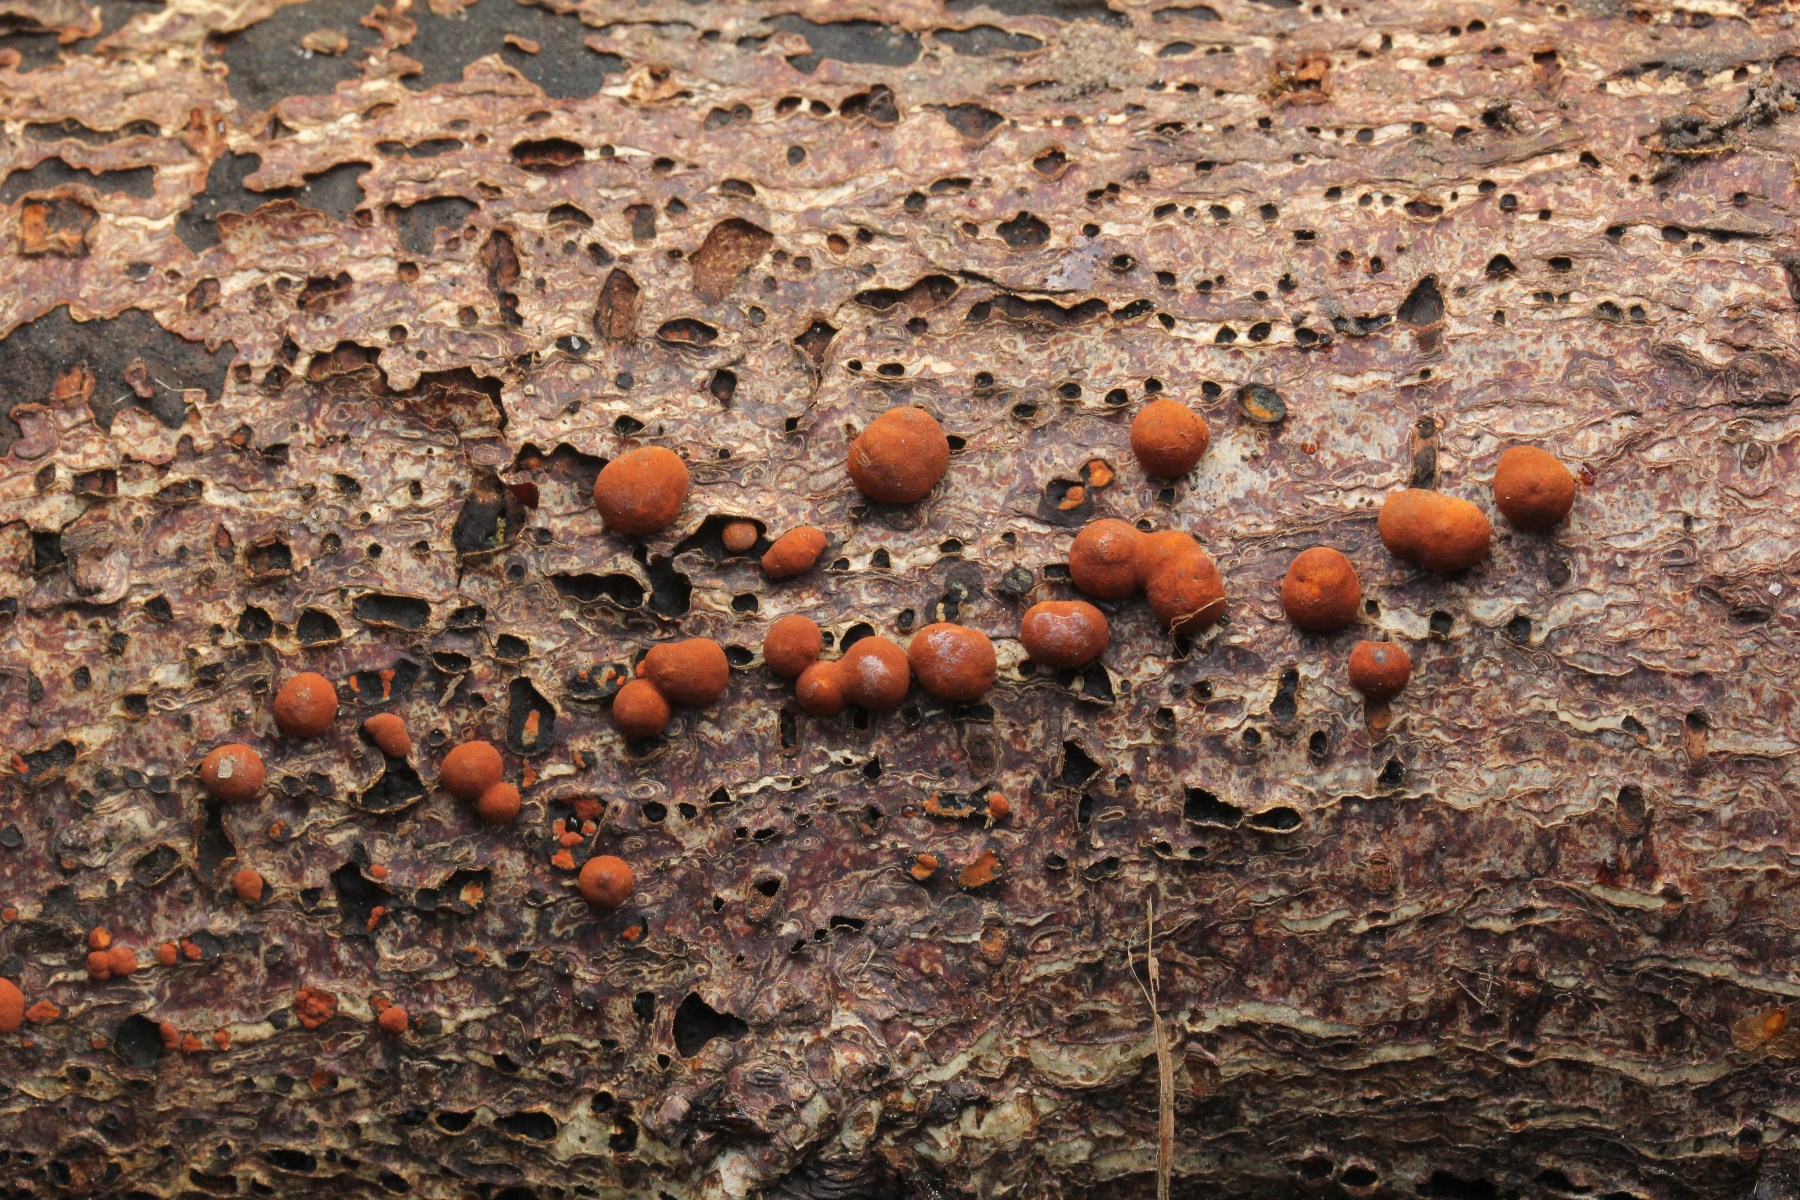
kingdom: Fungi
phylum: Ascomycota
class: Sordariomycetes
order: Xylariales
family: Hypoxylaceae
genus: Hypoxylon
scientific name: Hypoxylon howeanum
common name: halvkugleformet kulbær
